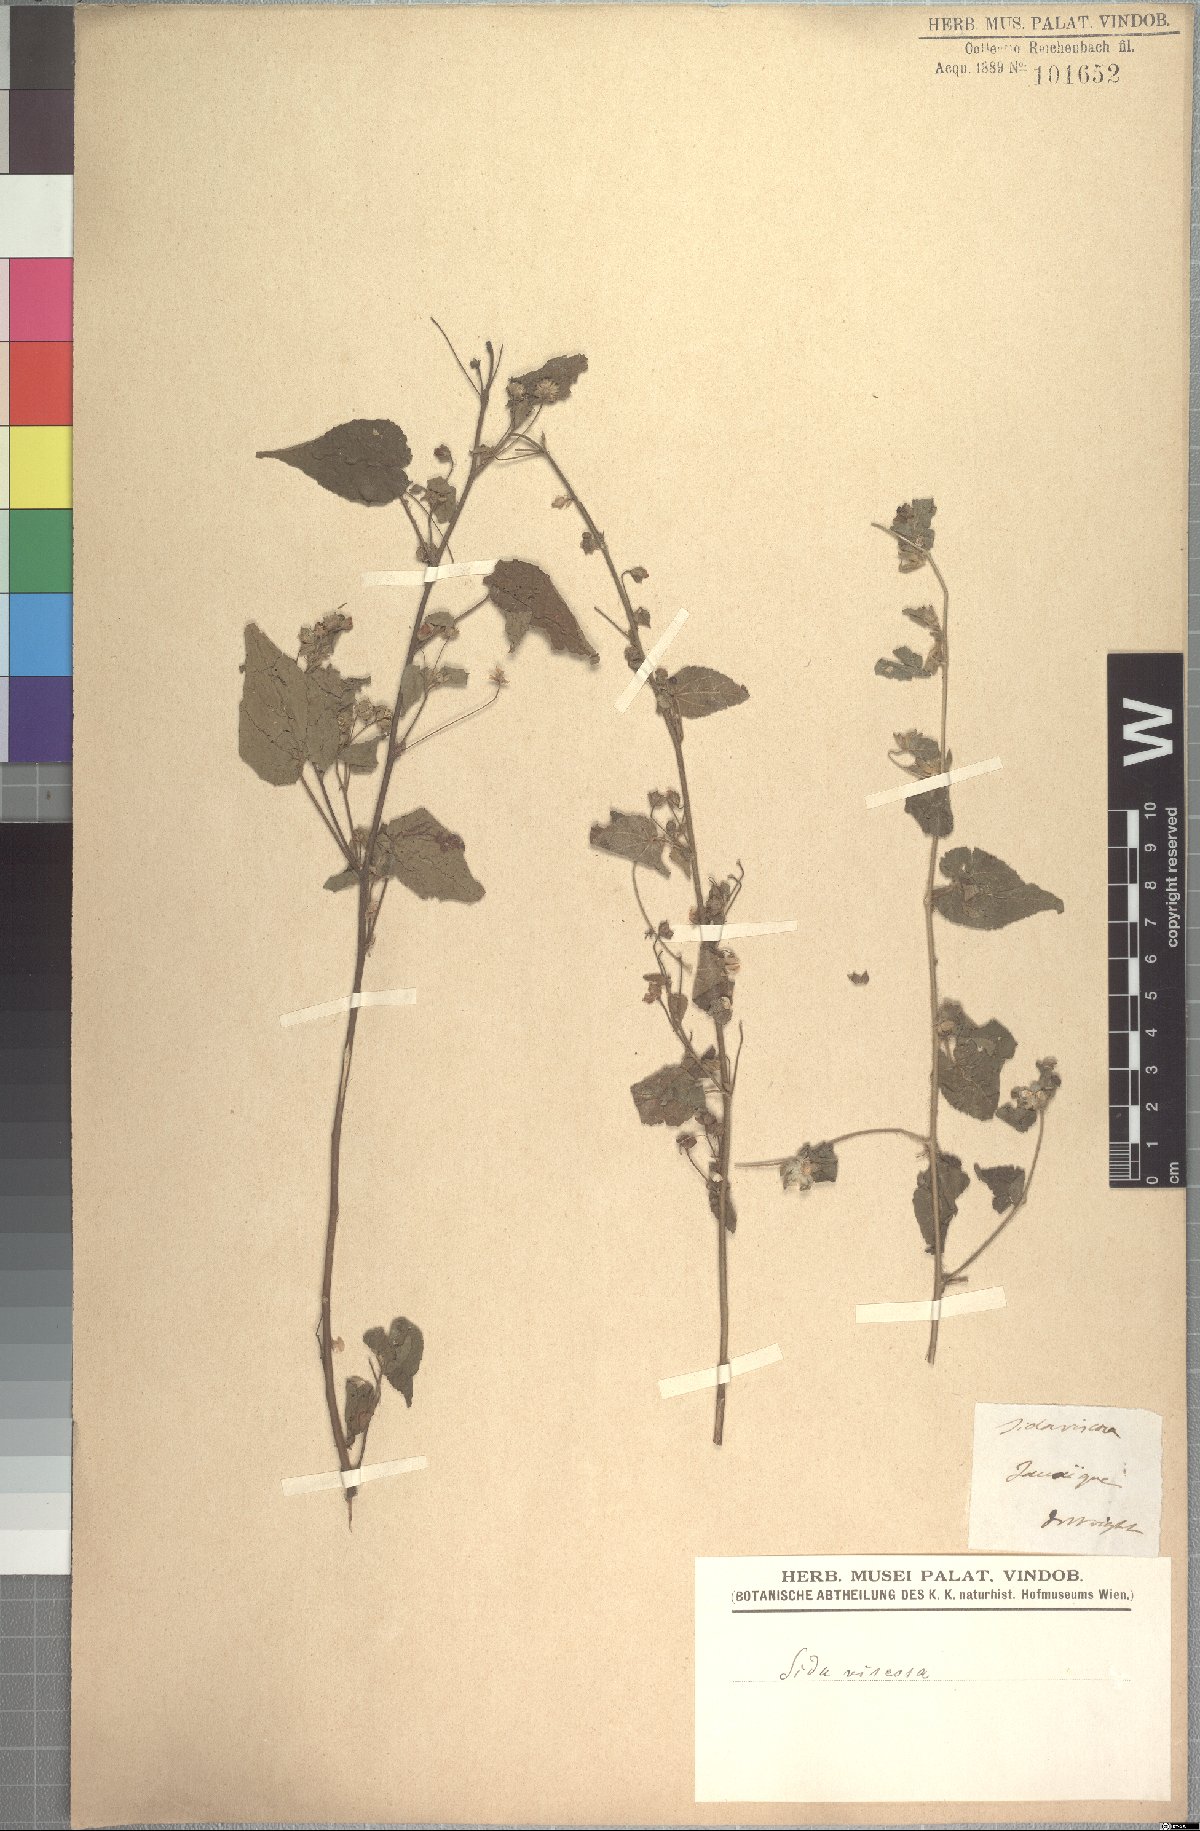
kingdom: Plantae
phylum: Tracheophyta
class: Magnoliopsida
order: Malvales
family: Malvaceae
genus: Abutilon
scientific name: Abutilon viscosum
